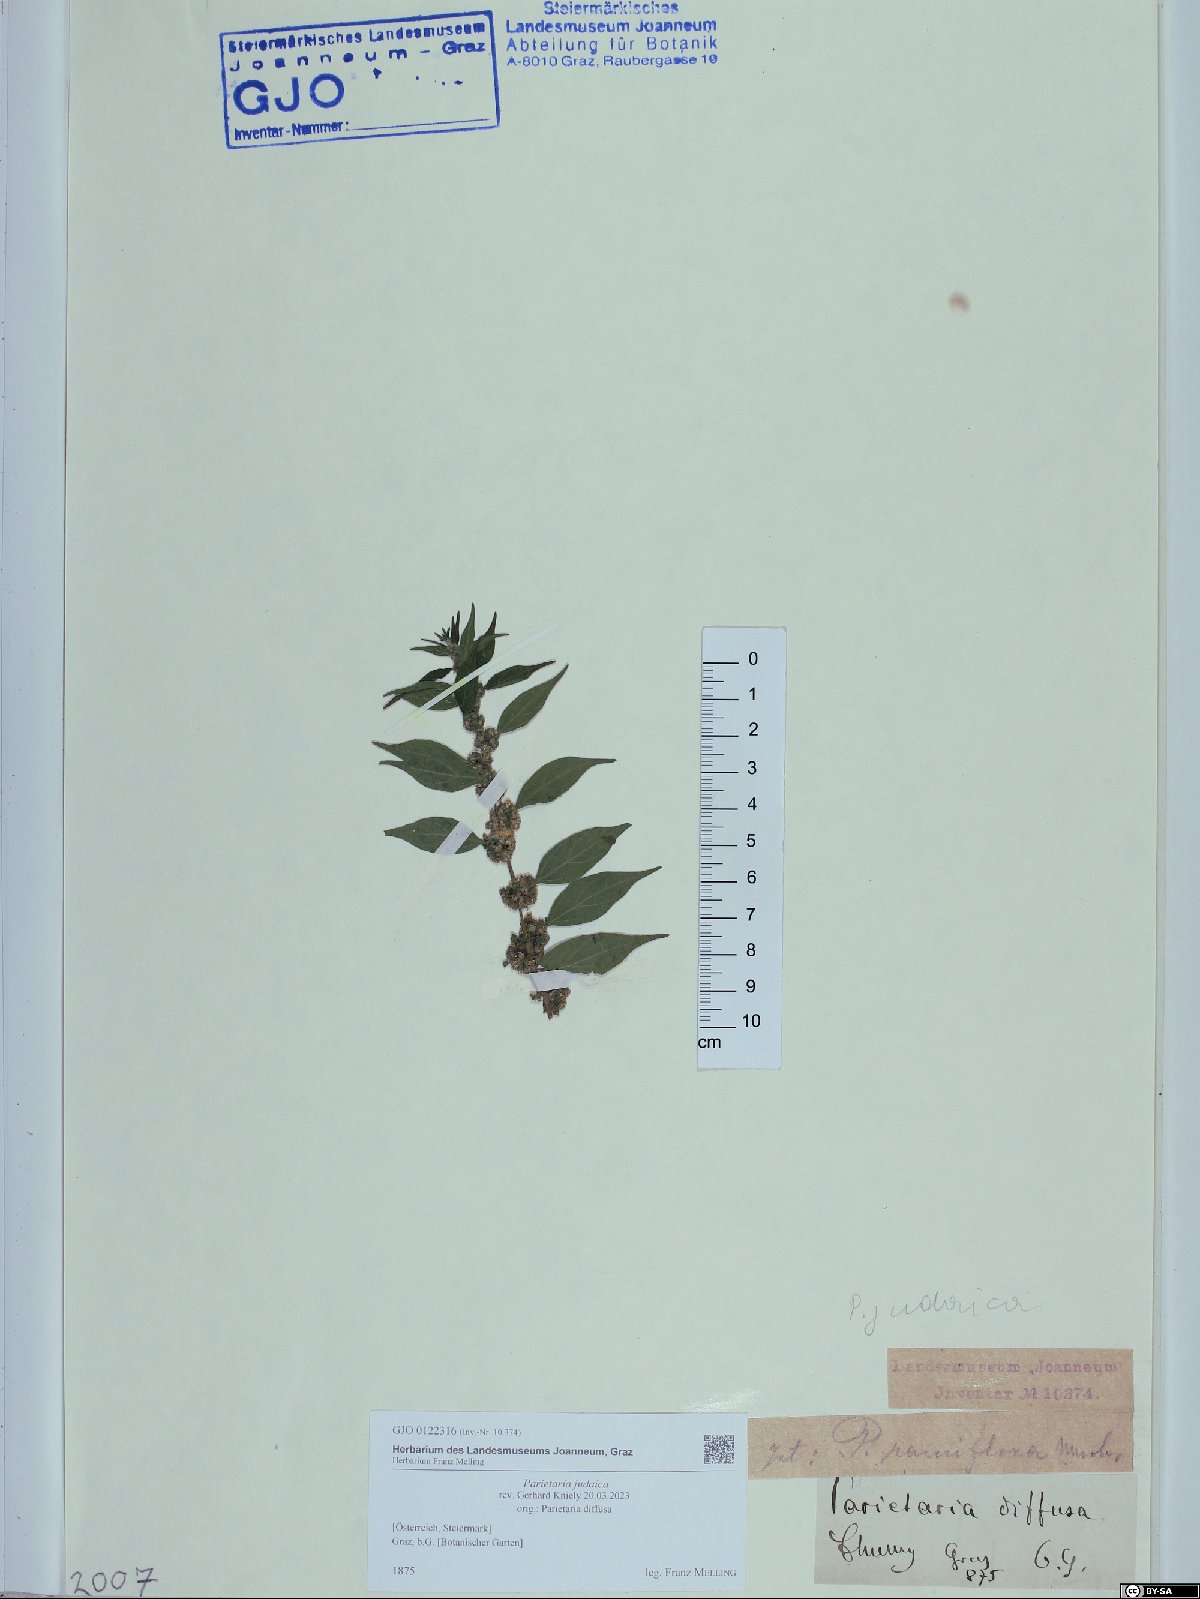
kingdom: Plantae
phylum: Tracheophyta
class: Magnoliopsida
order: Rosales
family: Urticaceae
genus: Parietaria
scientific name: Parietaria judaica
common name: Pellitory-of-the-wall
